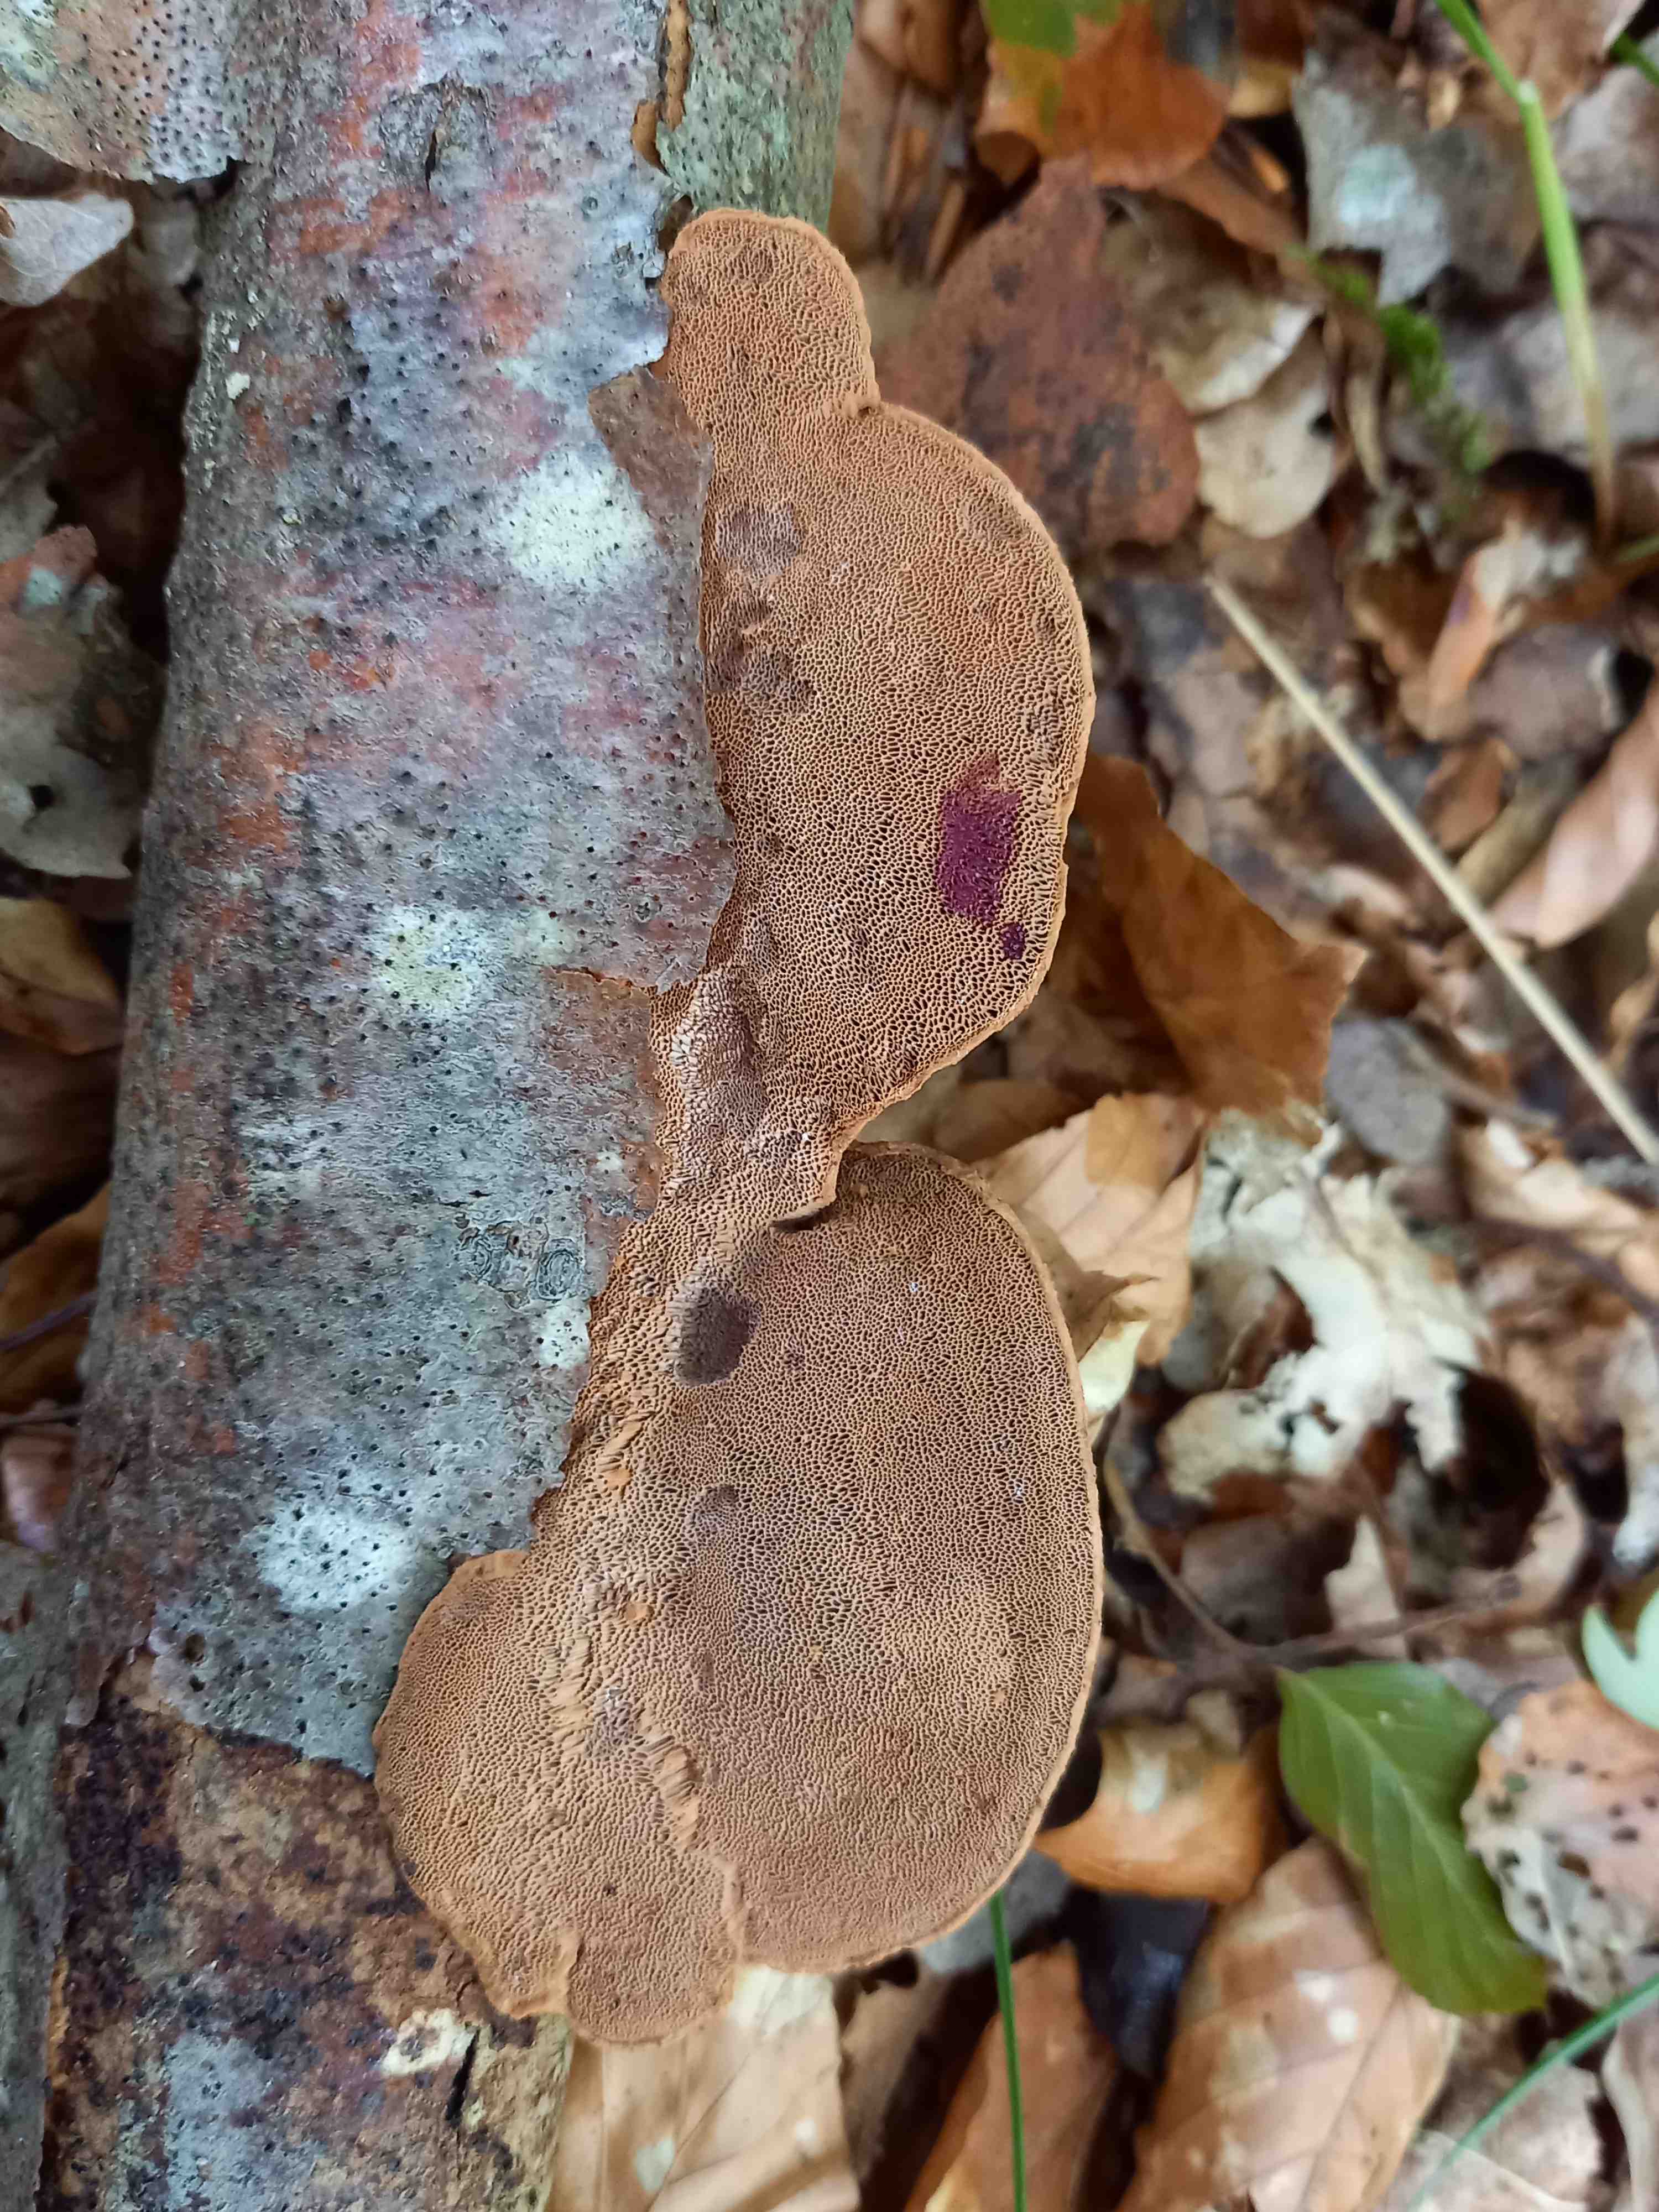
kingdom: Fungi
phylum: Basidiomycota
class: Agaricomycetes
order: Polyporales
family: Phanerochaetaceae
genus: Hapalopilus
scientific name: Hapalopilus rutilans
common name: rødlig okkerporesvamp
